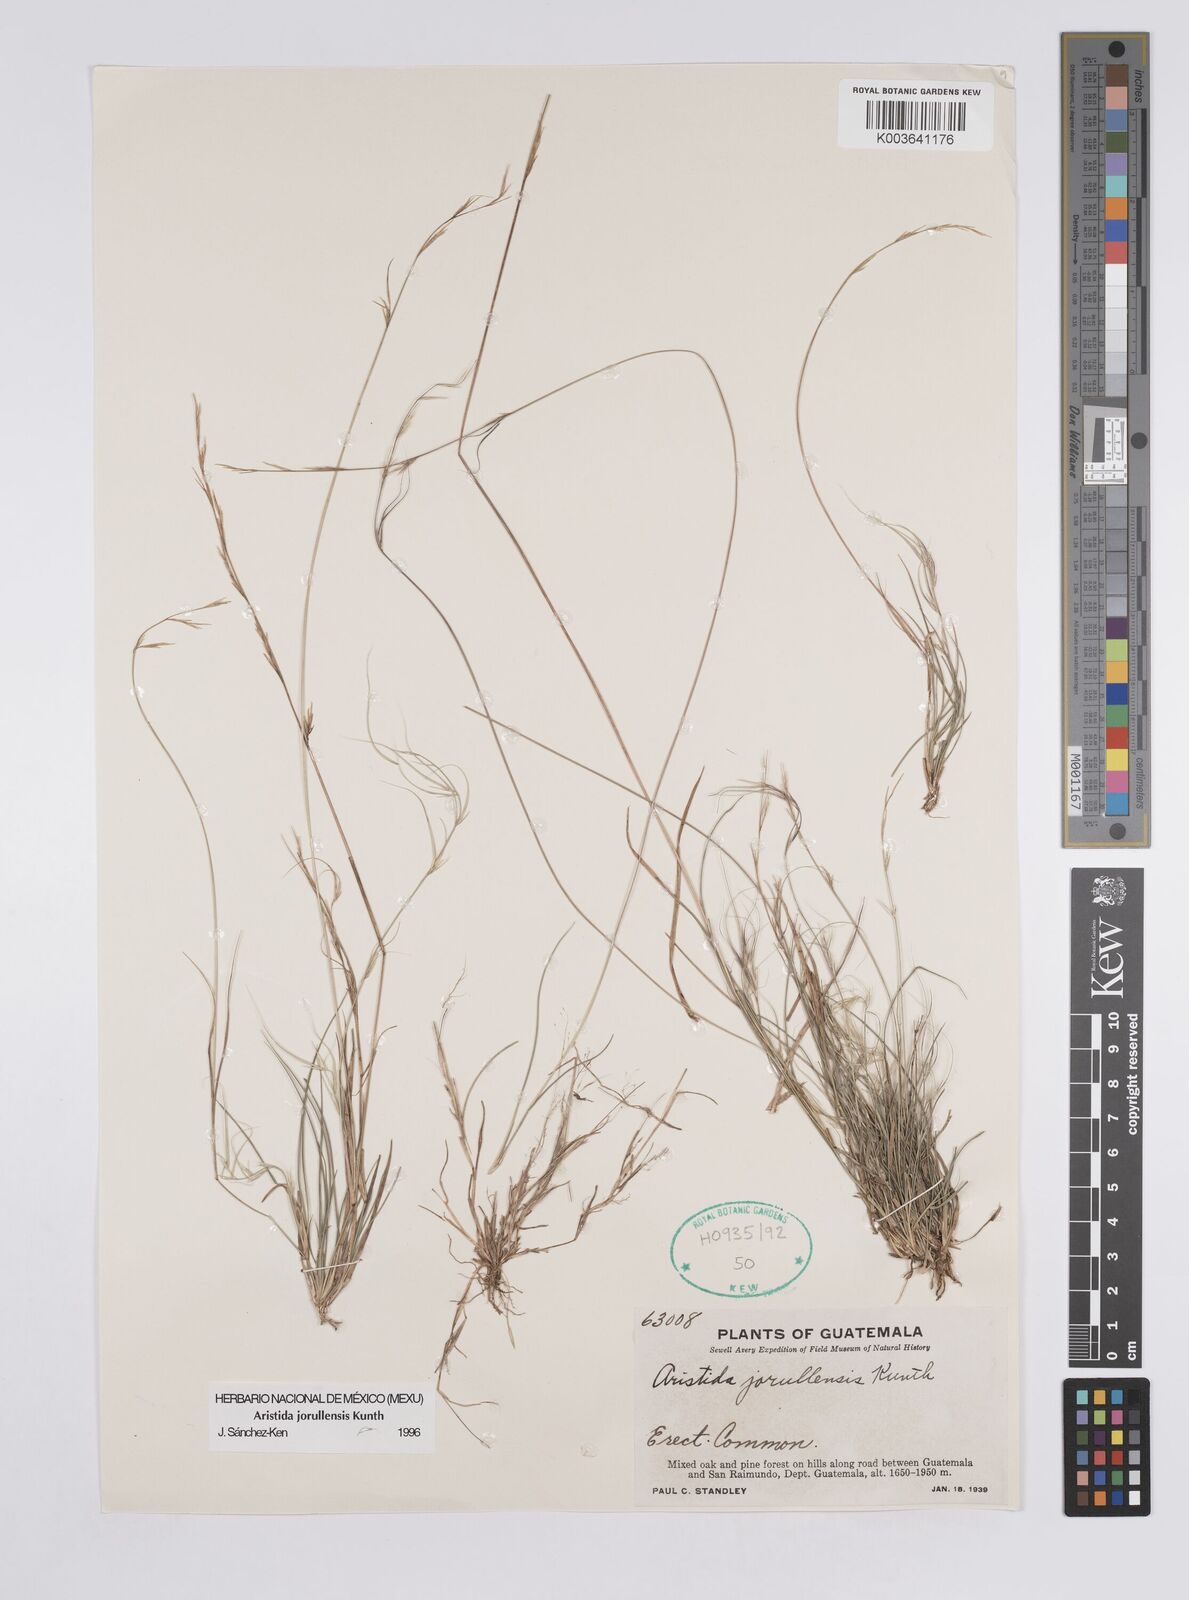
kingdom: Plantae
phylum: Tracheophyta
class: Liliopsida
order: Poales
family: Poaceae
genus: Aristida
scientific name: Aristida jorullensis
